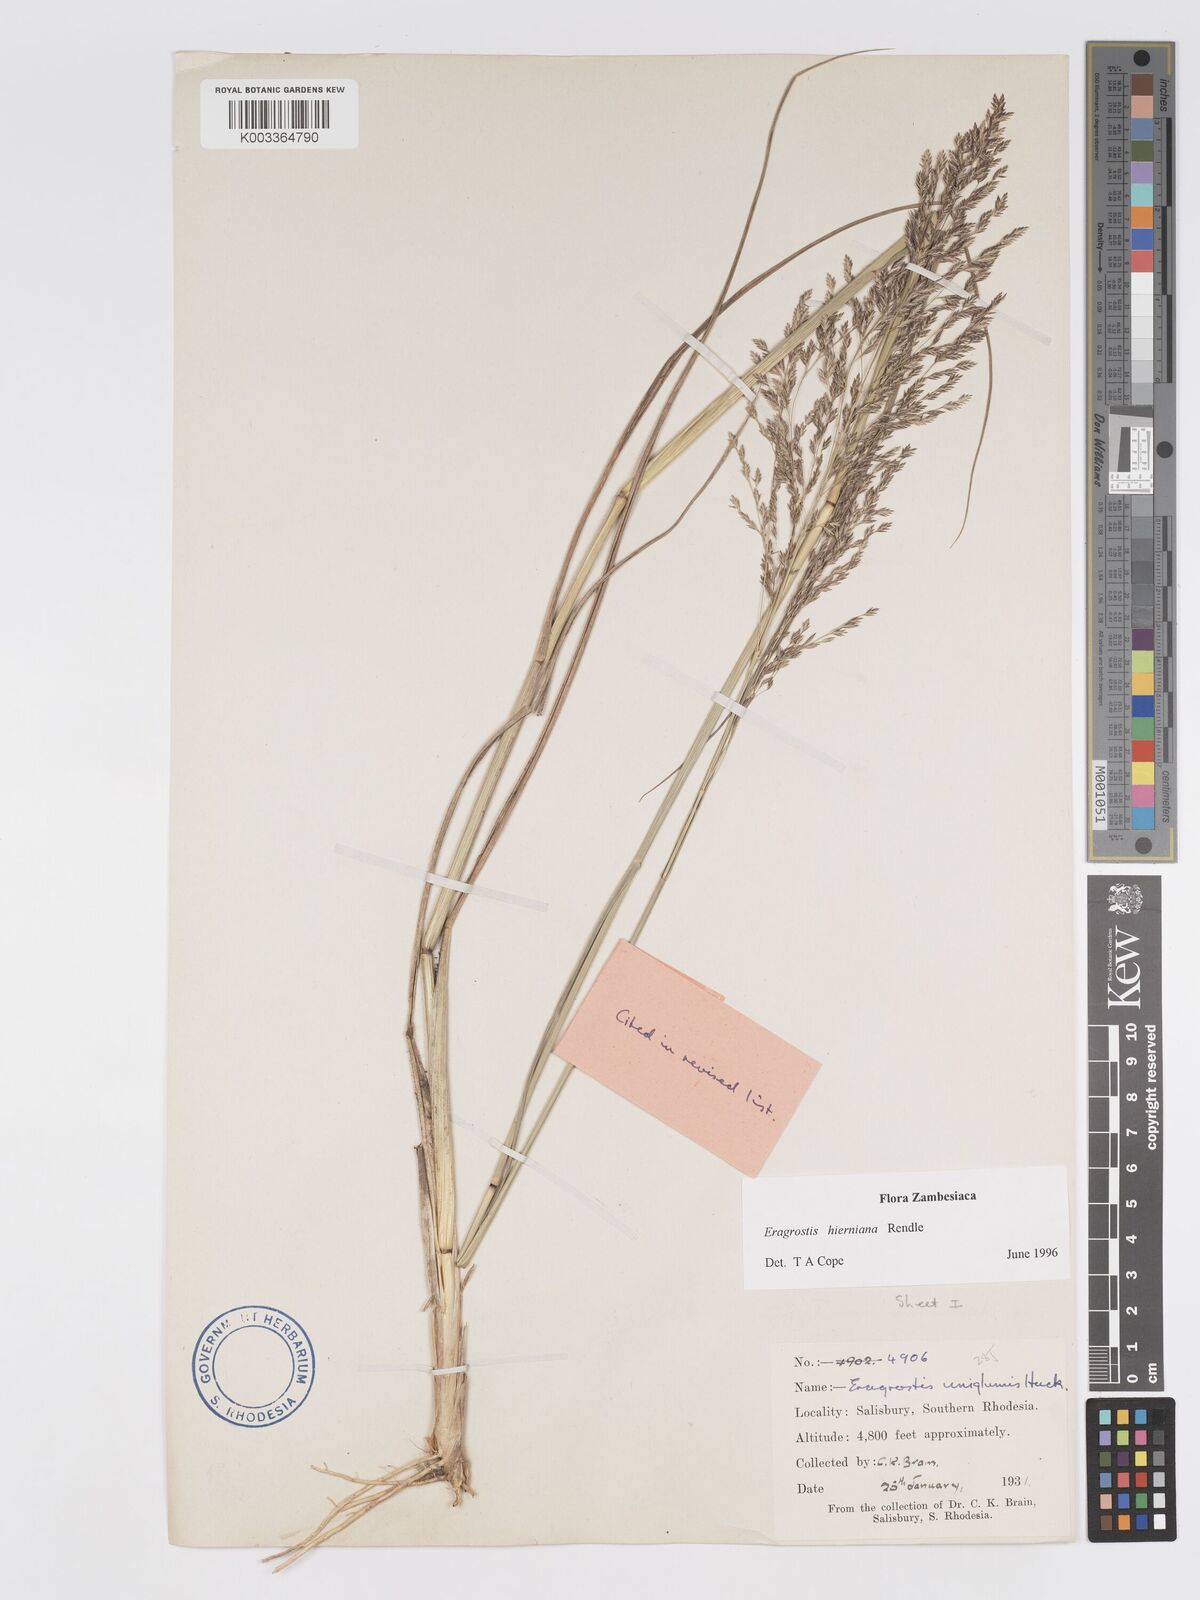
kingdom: Plantae
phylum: Tracheophyta
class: Liliopsida
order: Poales
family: Poaceae
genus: Eragrostis
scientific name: Eragrostis hierniana
